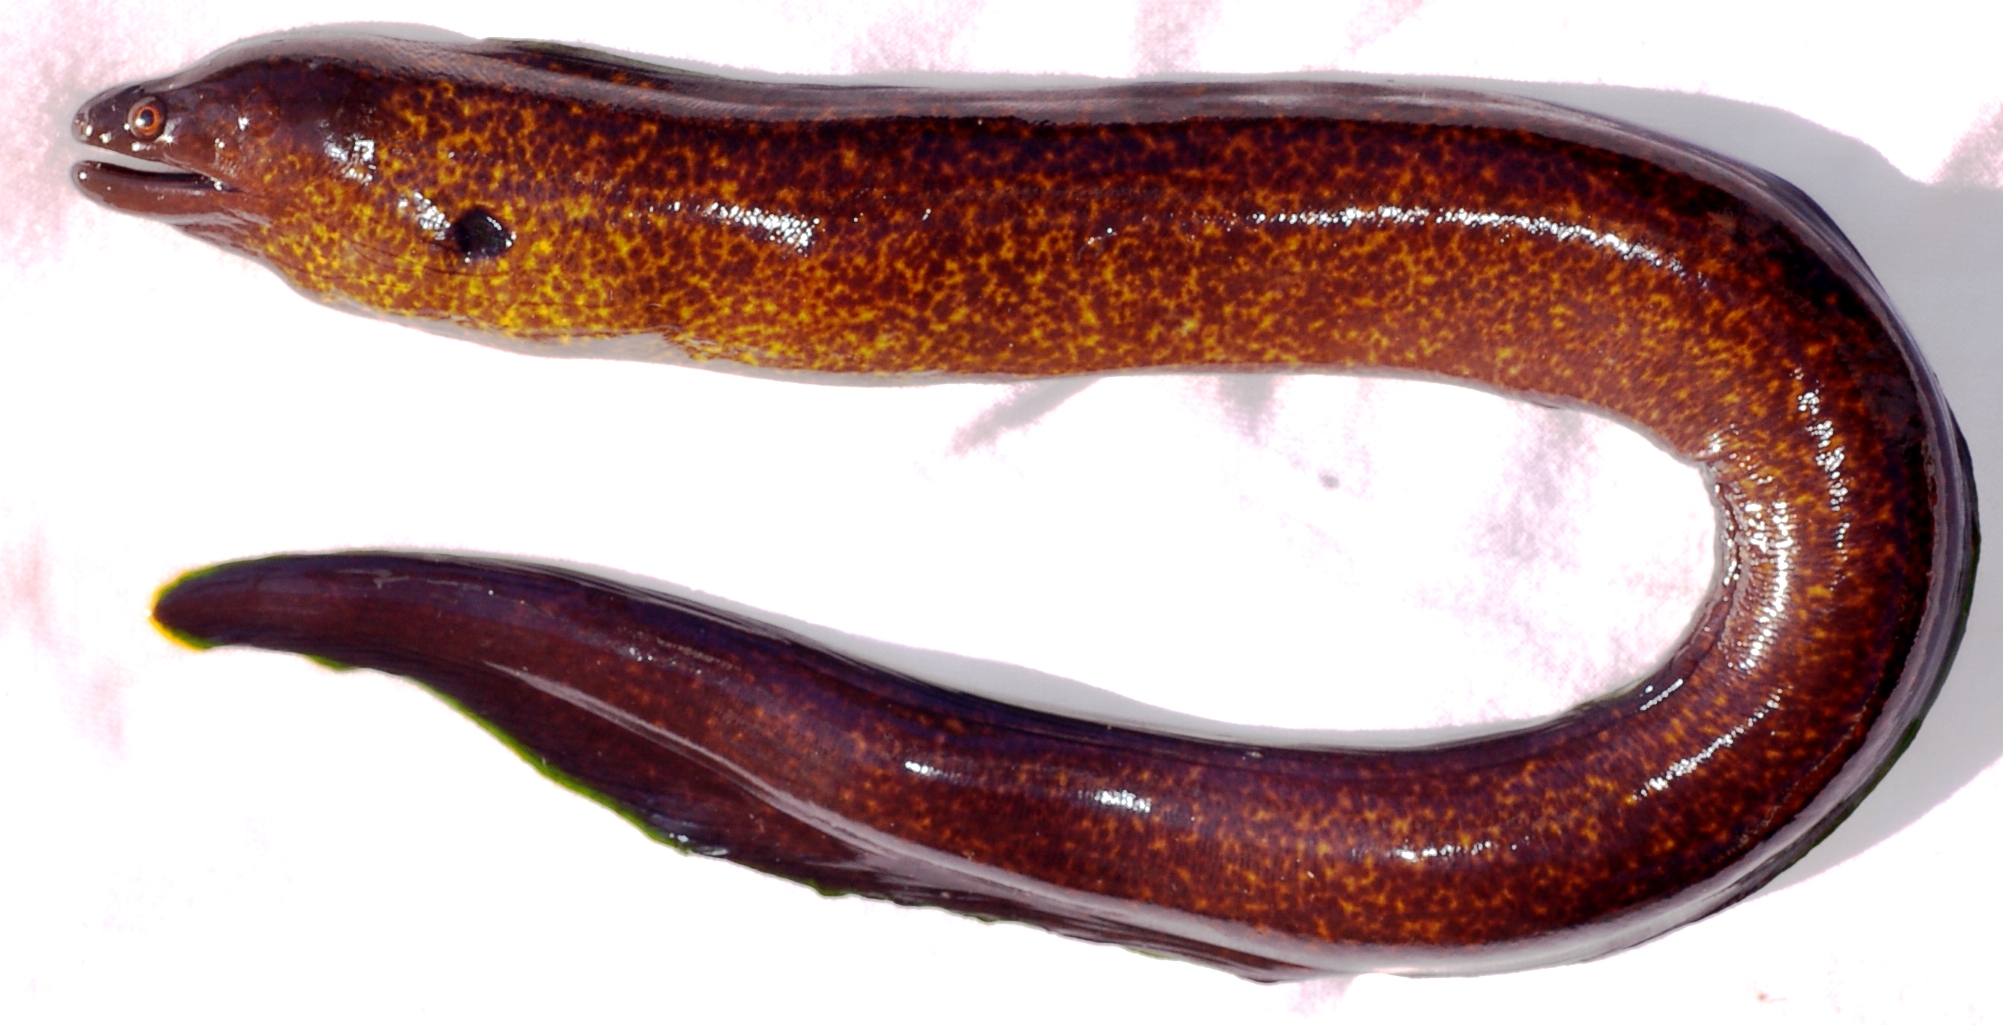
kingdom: Animalia
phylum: Chordata
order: Anguilliformes
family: Muraenidae
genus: Gymnothorax
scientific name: Gymnothorax flavimarginatus
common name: Yellow-edged moray
